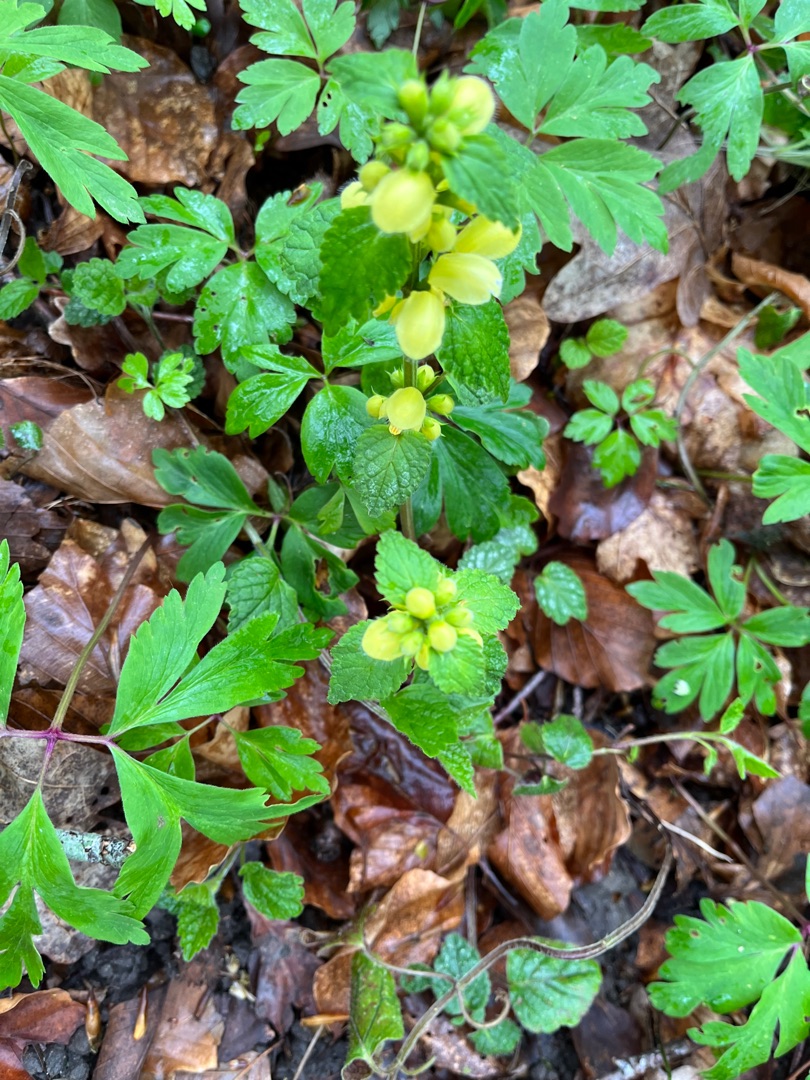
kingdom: Plantae
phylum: Tracheophyta
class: Magnoliopsida
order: Lamiales
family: Lamiaceae
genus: Lamium
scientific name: Lamium galeobdolon
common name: Almindelig guldnælde
